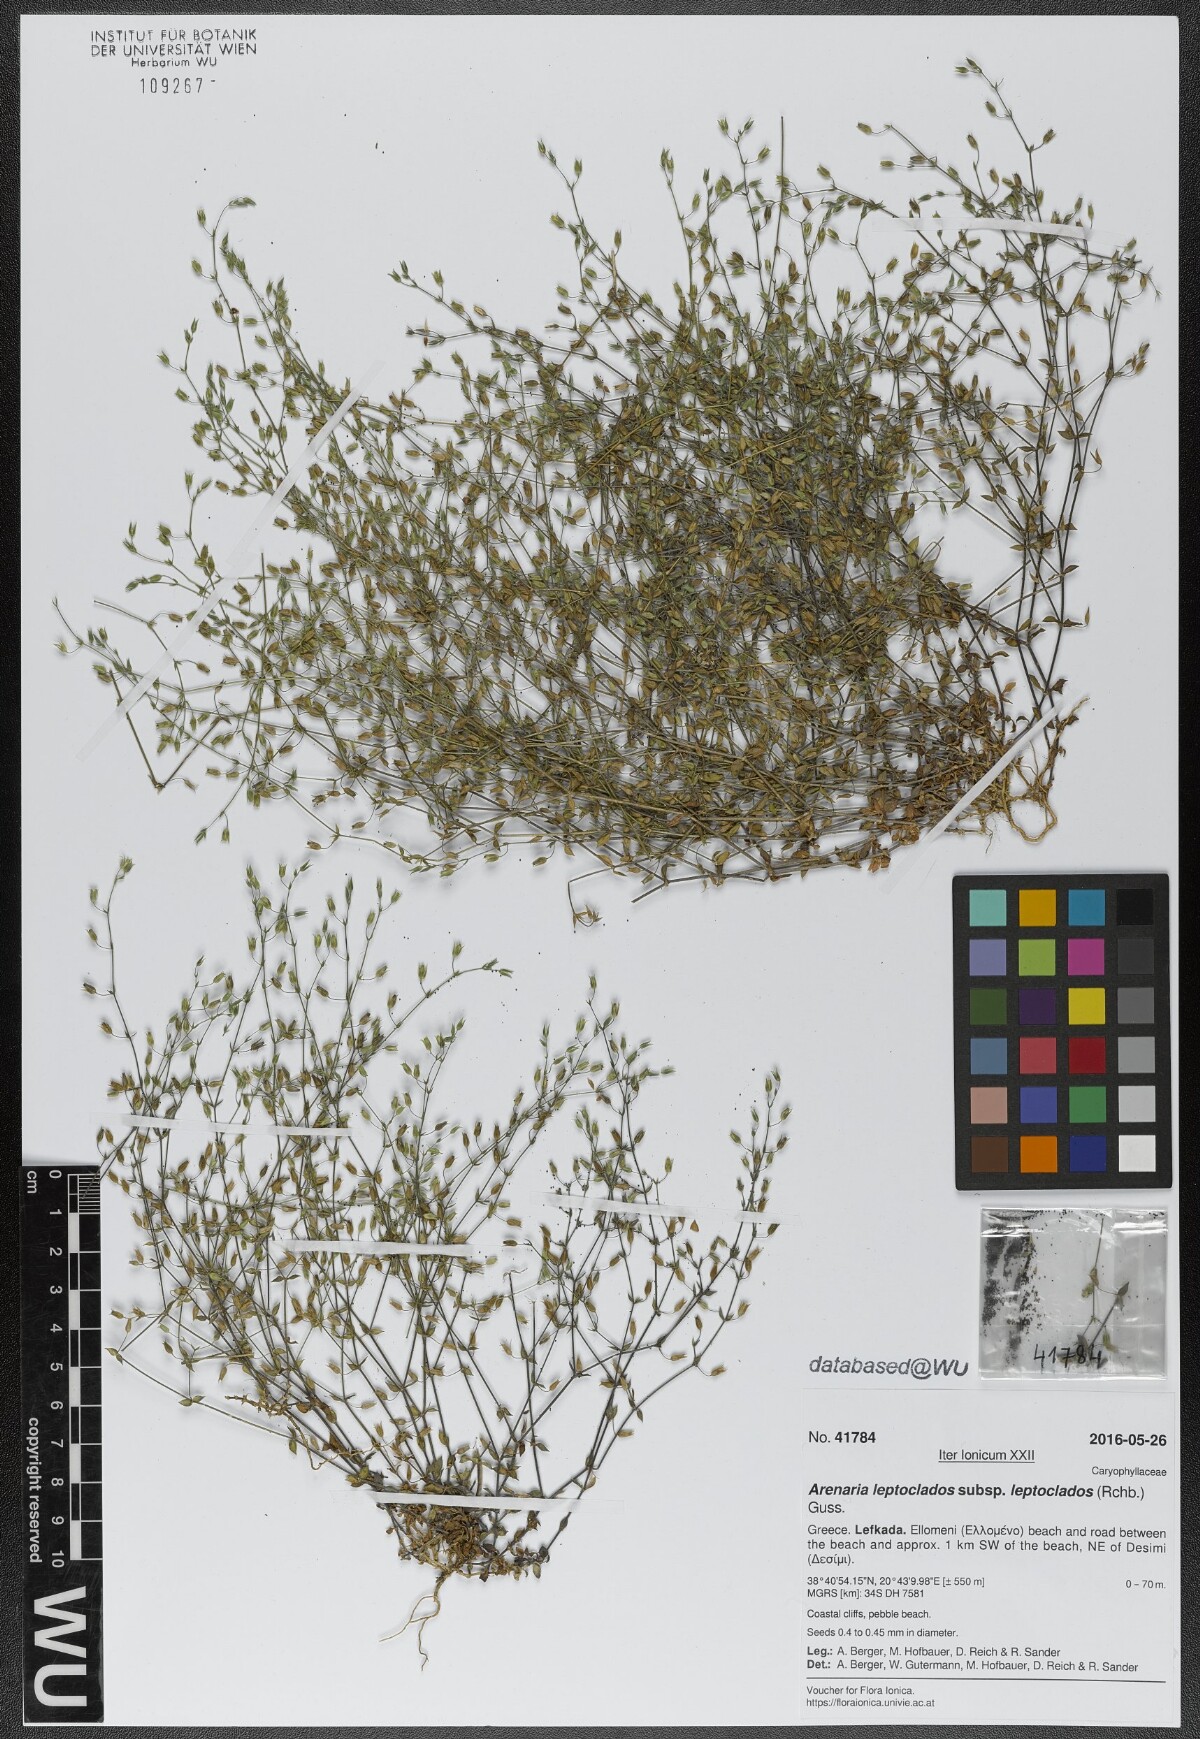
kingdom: Plantae
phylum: Tracheophyta
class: Magnoliopsida
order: Caryophyllales
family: Caryophyllaceae
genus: Arenaria
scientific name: Arenaria leptoclados
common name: Thyme-leaved sandwort
